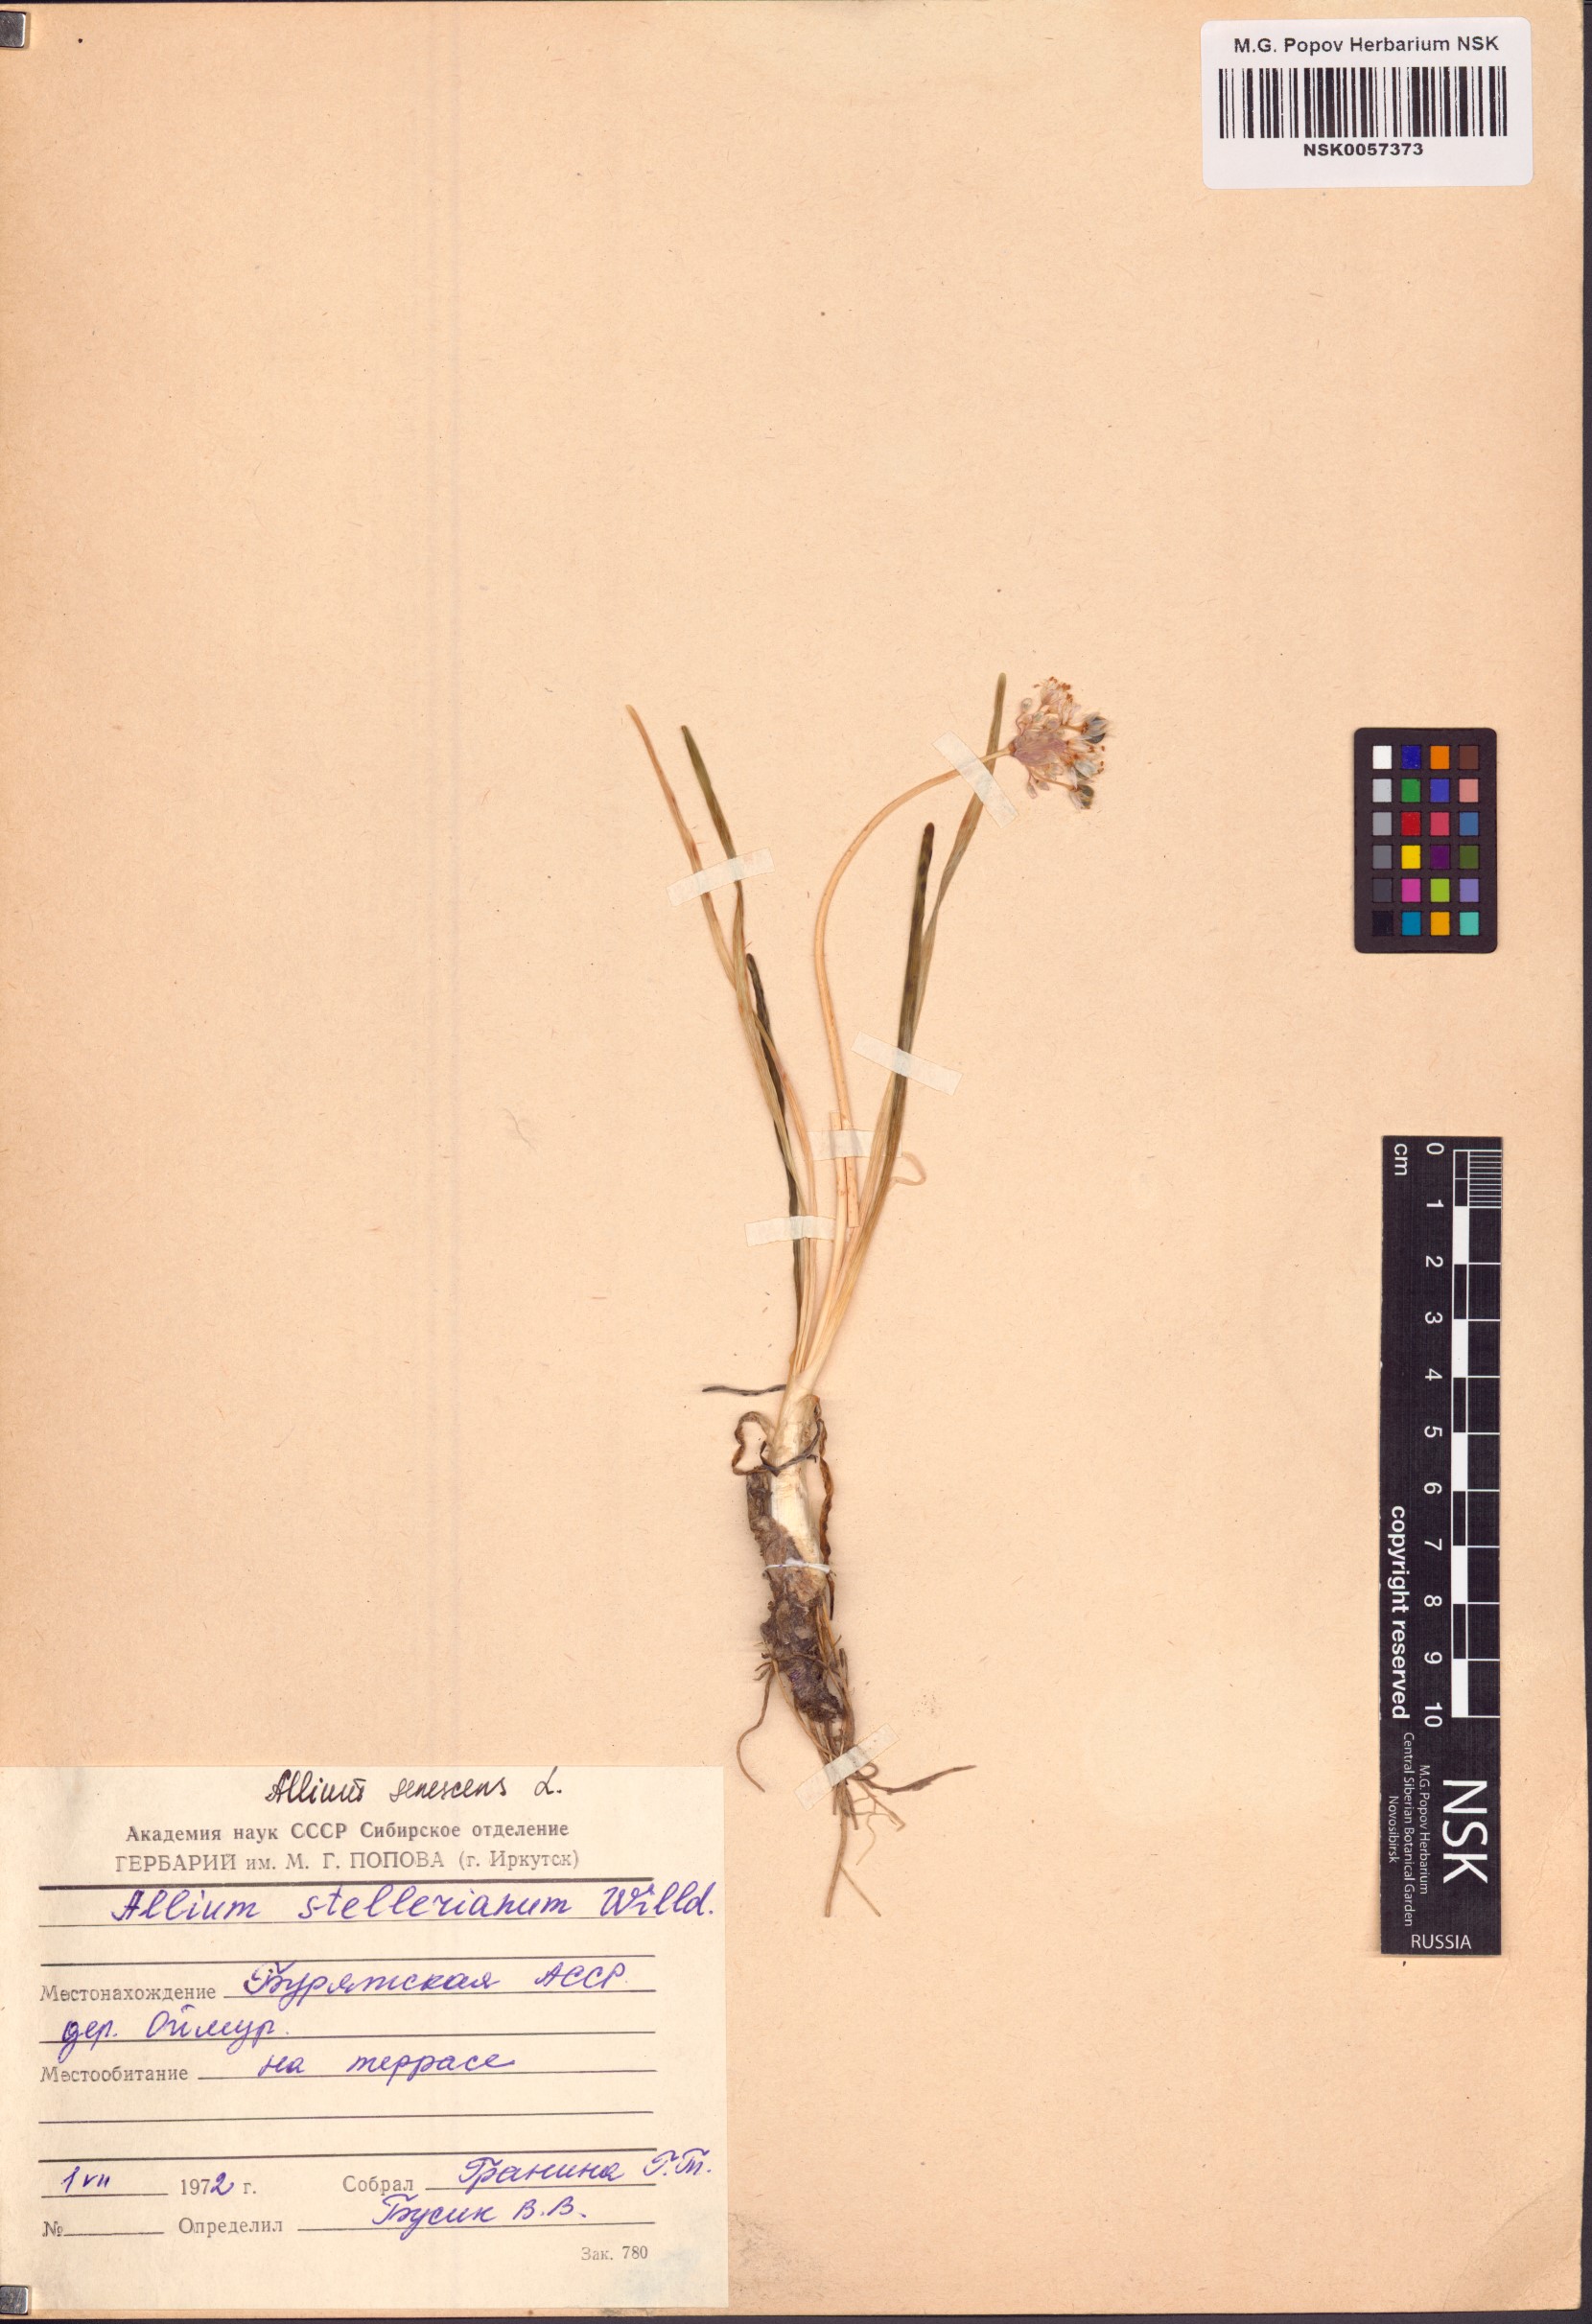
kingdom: Plantae
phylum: Tracheophyta
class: Liliopsida
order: Asparagales
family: Amaryllidaceae
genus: Allium
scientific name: Allium senescens
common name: German garlic
